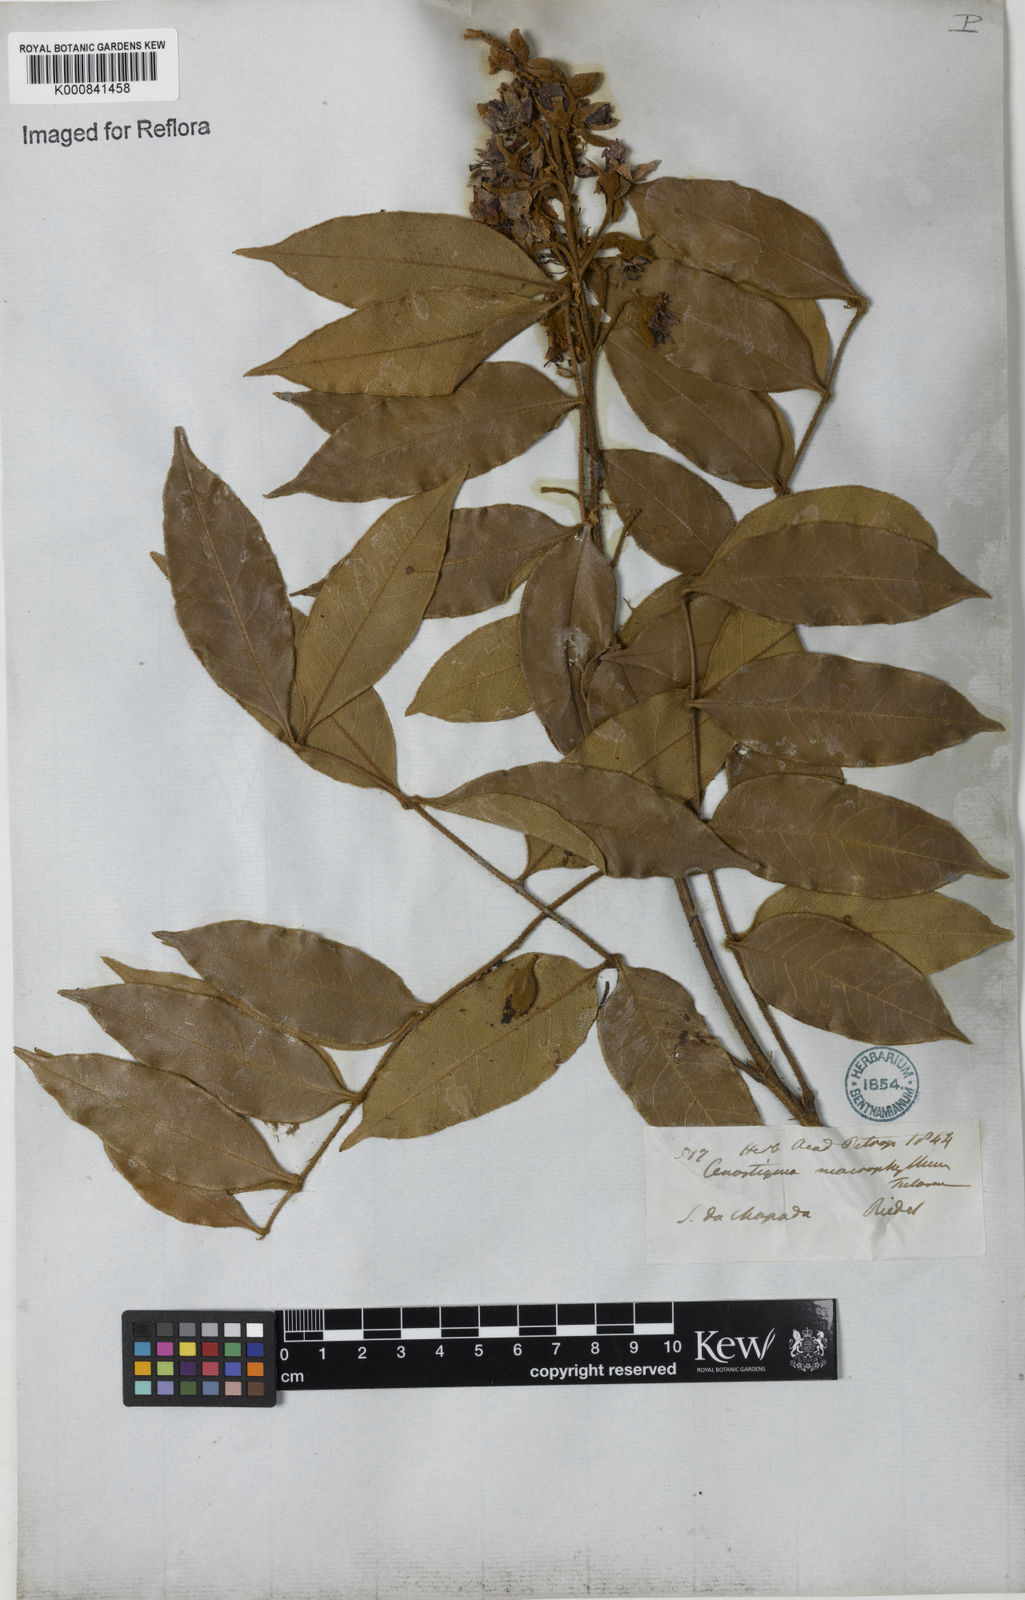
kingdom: Plantae
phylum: Tracheophyta
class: Magnoliopsida
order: Fabales
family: Fabaceae
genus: Cenostigma
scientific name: Cenostigma macrophyllum
